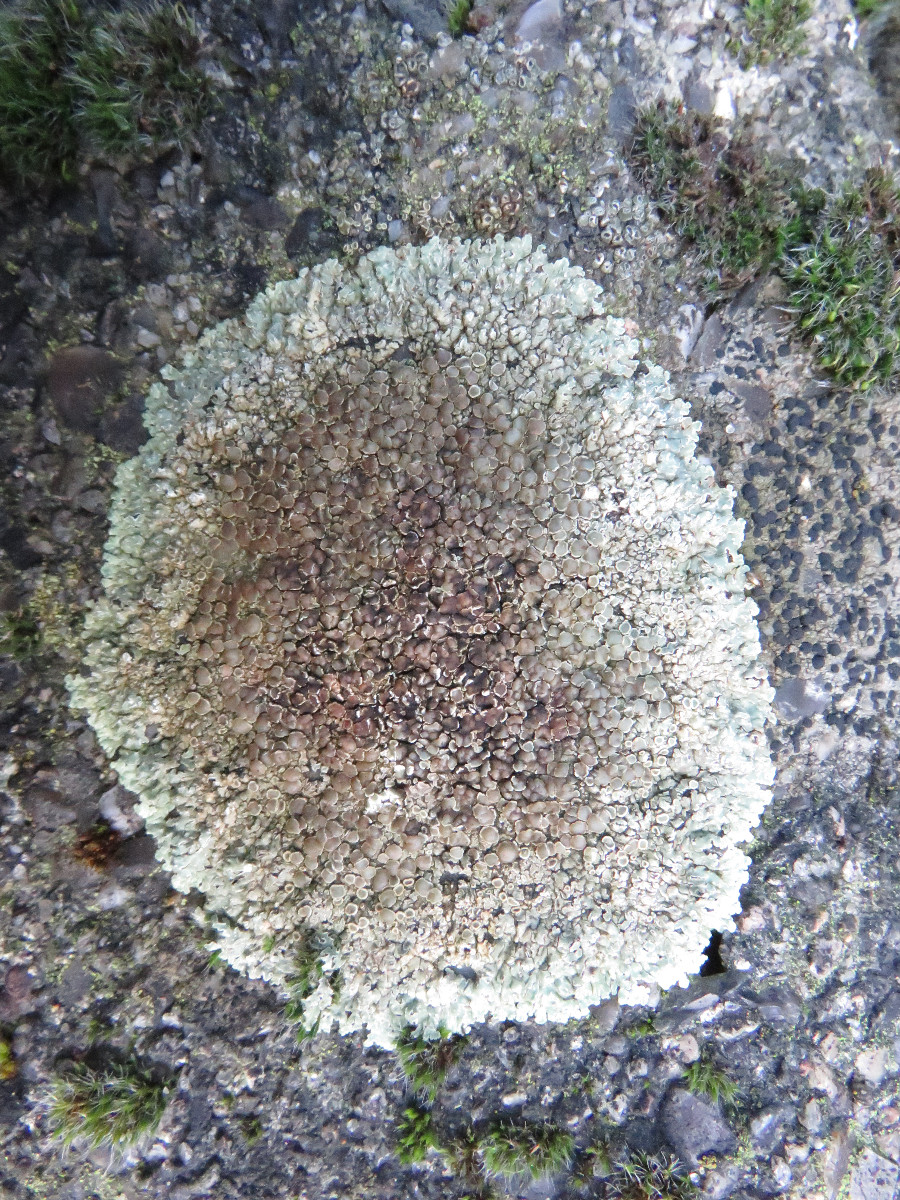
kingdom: Fungi
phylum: Ascomycota
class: Lecanoromycetes
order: Lecanorales
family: Lecanoraceae
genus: Protoparmeliopsis
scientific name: Protoparmeliopsis muralis
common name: randfliget kantskivelav
